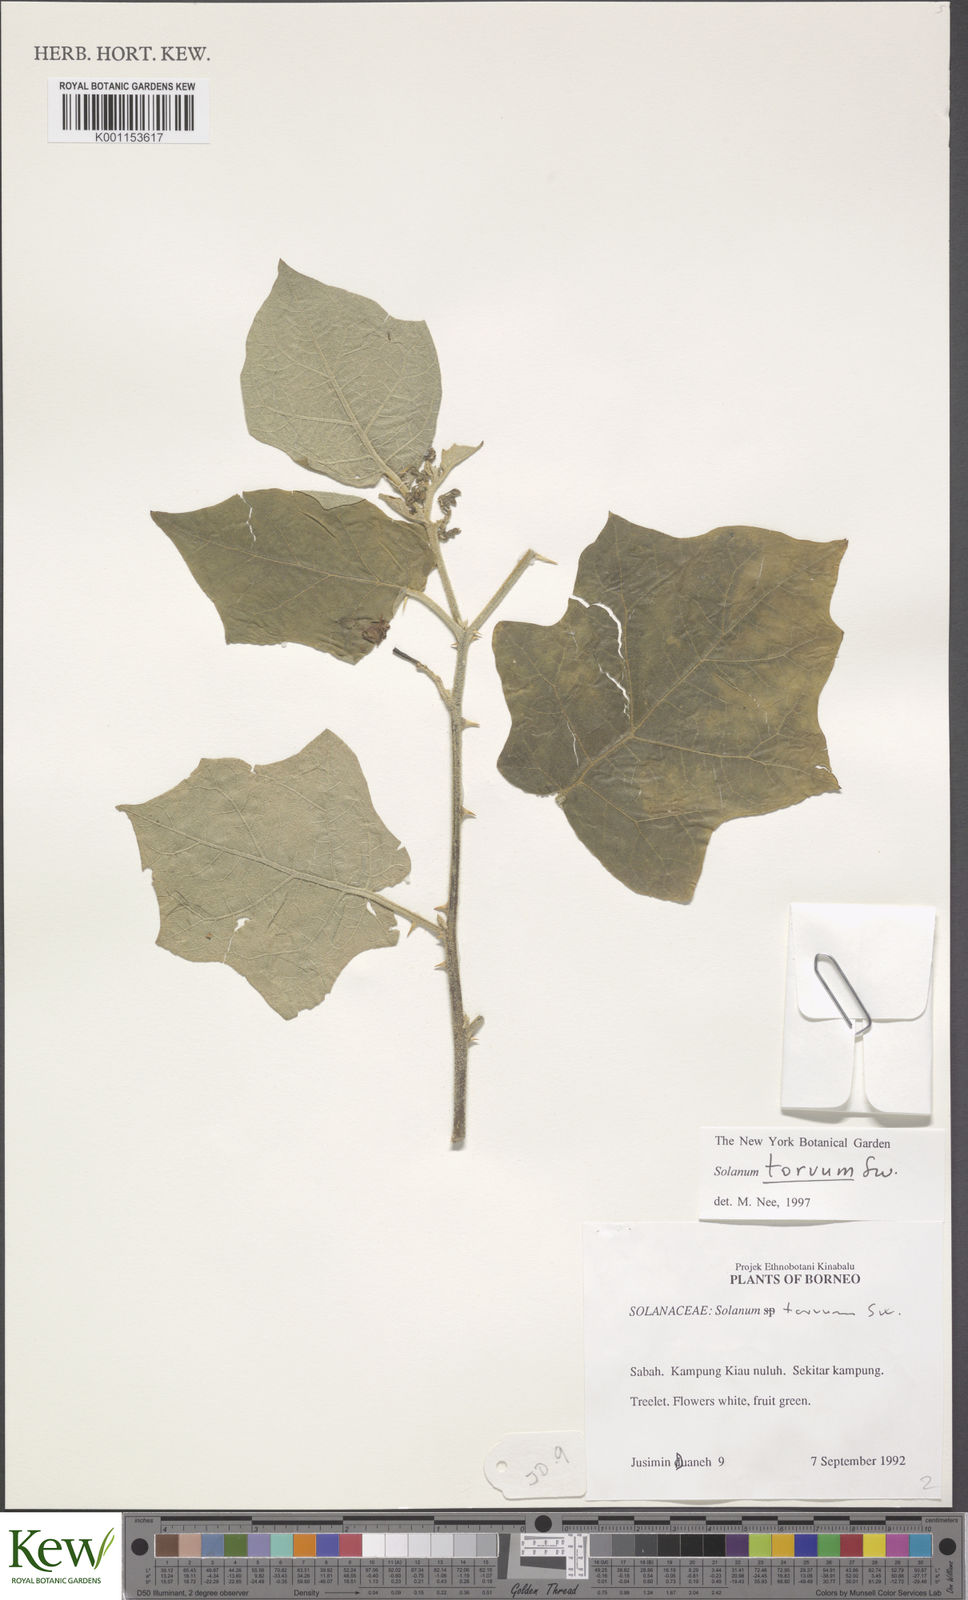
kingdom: Plantae
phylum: Tracheophyta
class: Magnoliopsida
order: Solanales
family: Solanaceae
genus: Solanum
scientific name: Solanum torvum
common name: Turkey berry
